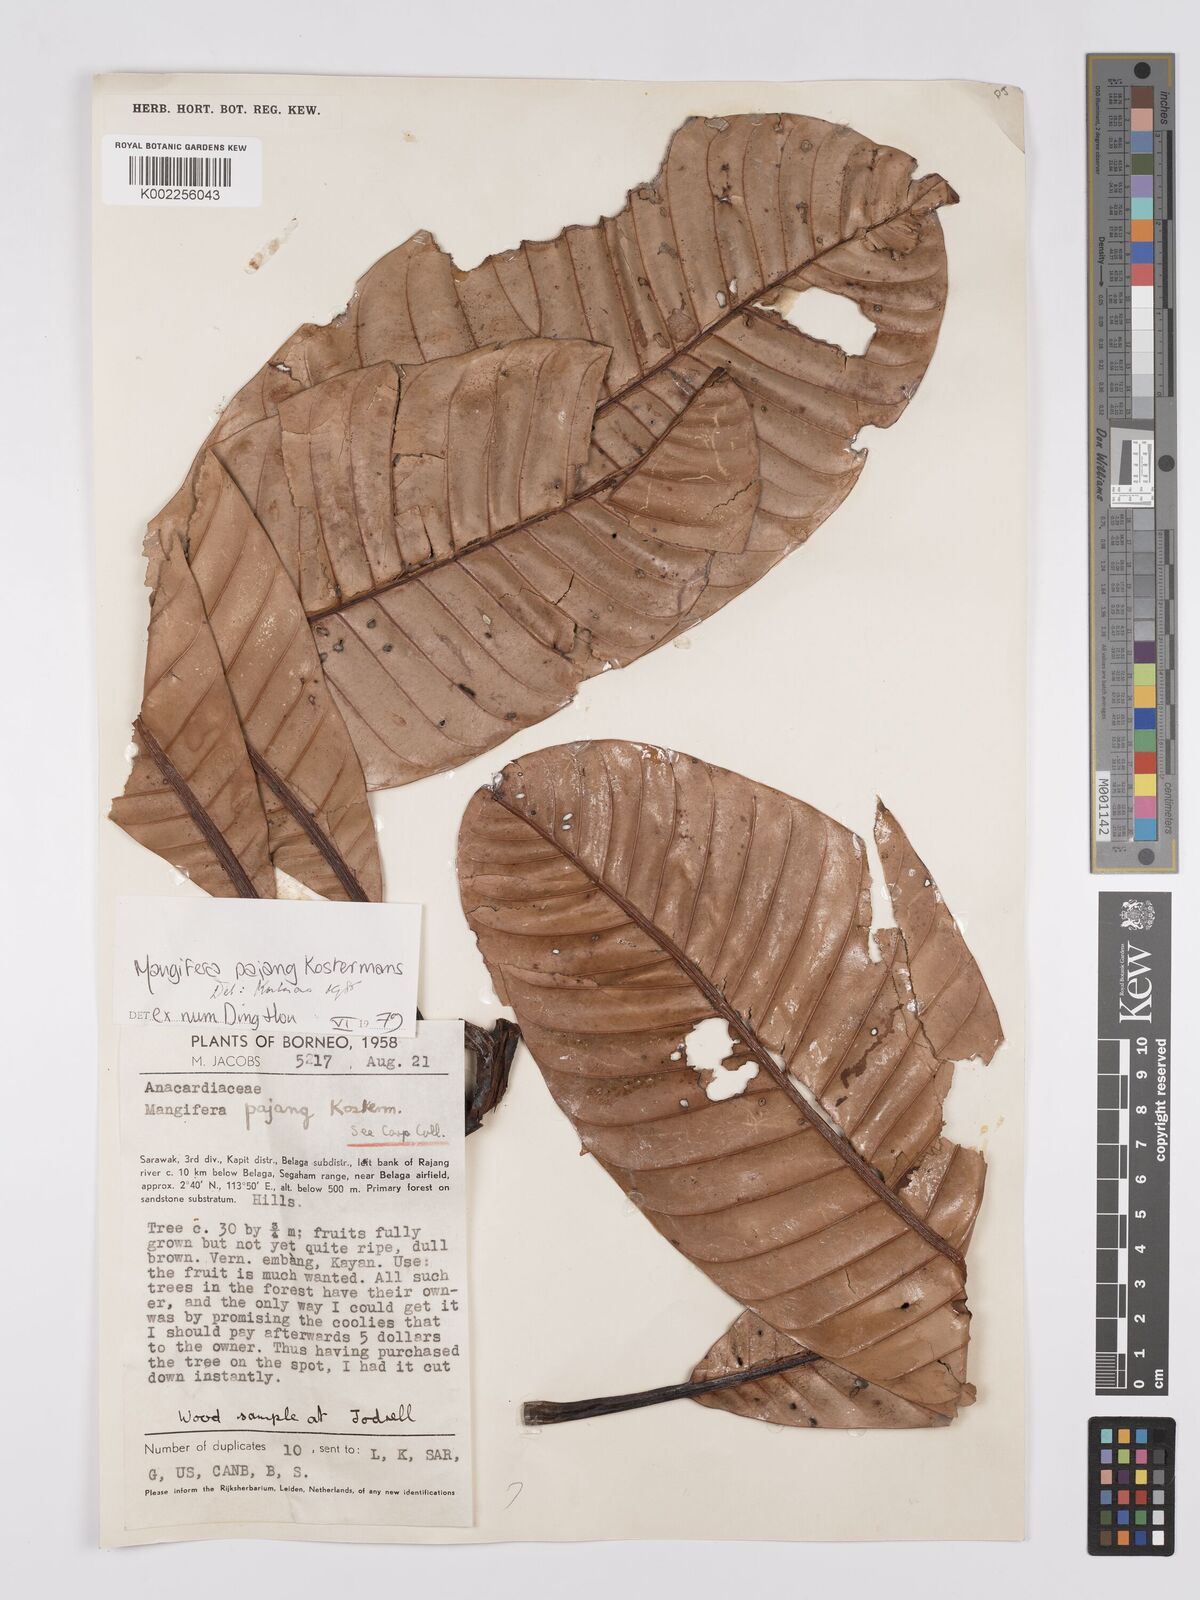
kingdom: Plantae
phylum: Tracheophyta
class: Magnoliopsida
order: Sapindales
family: Anacardiaceae
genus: Mangifera
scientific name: Mangifera pajang
